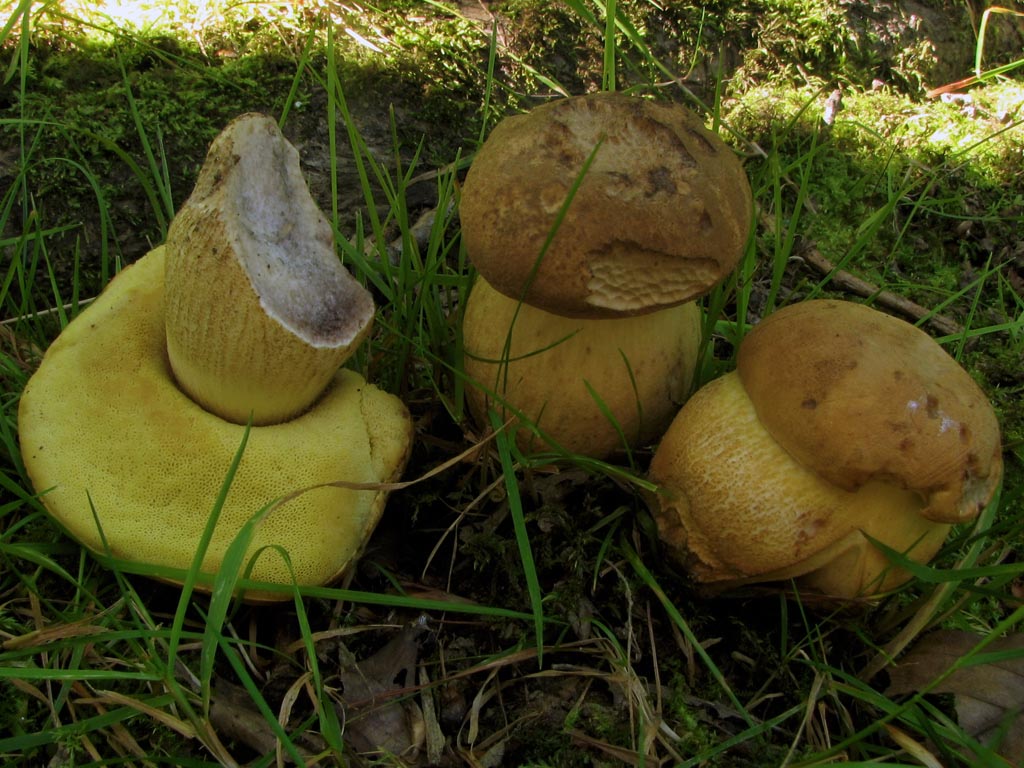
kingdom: Fungi
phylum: Basidiomycota
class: Agaricomycetes
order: Boletales
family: Boletaceae
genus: Leccinellum
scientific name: Leccinellum crocipodium
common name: gul skælrørhat
